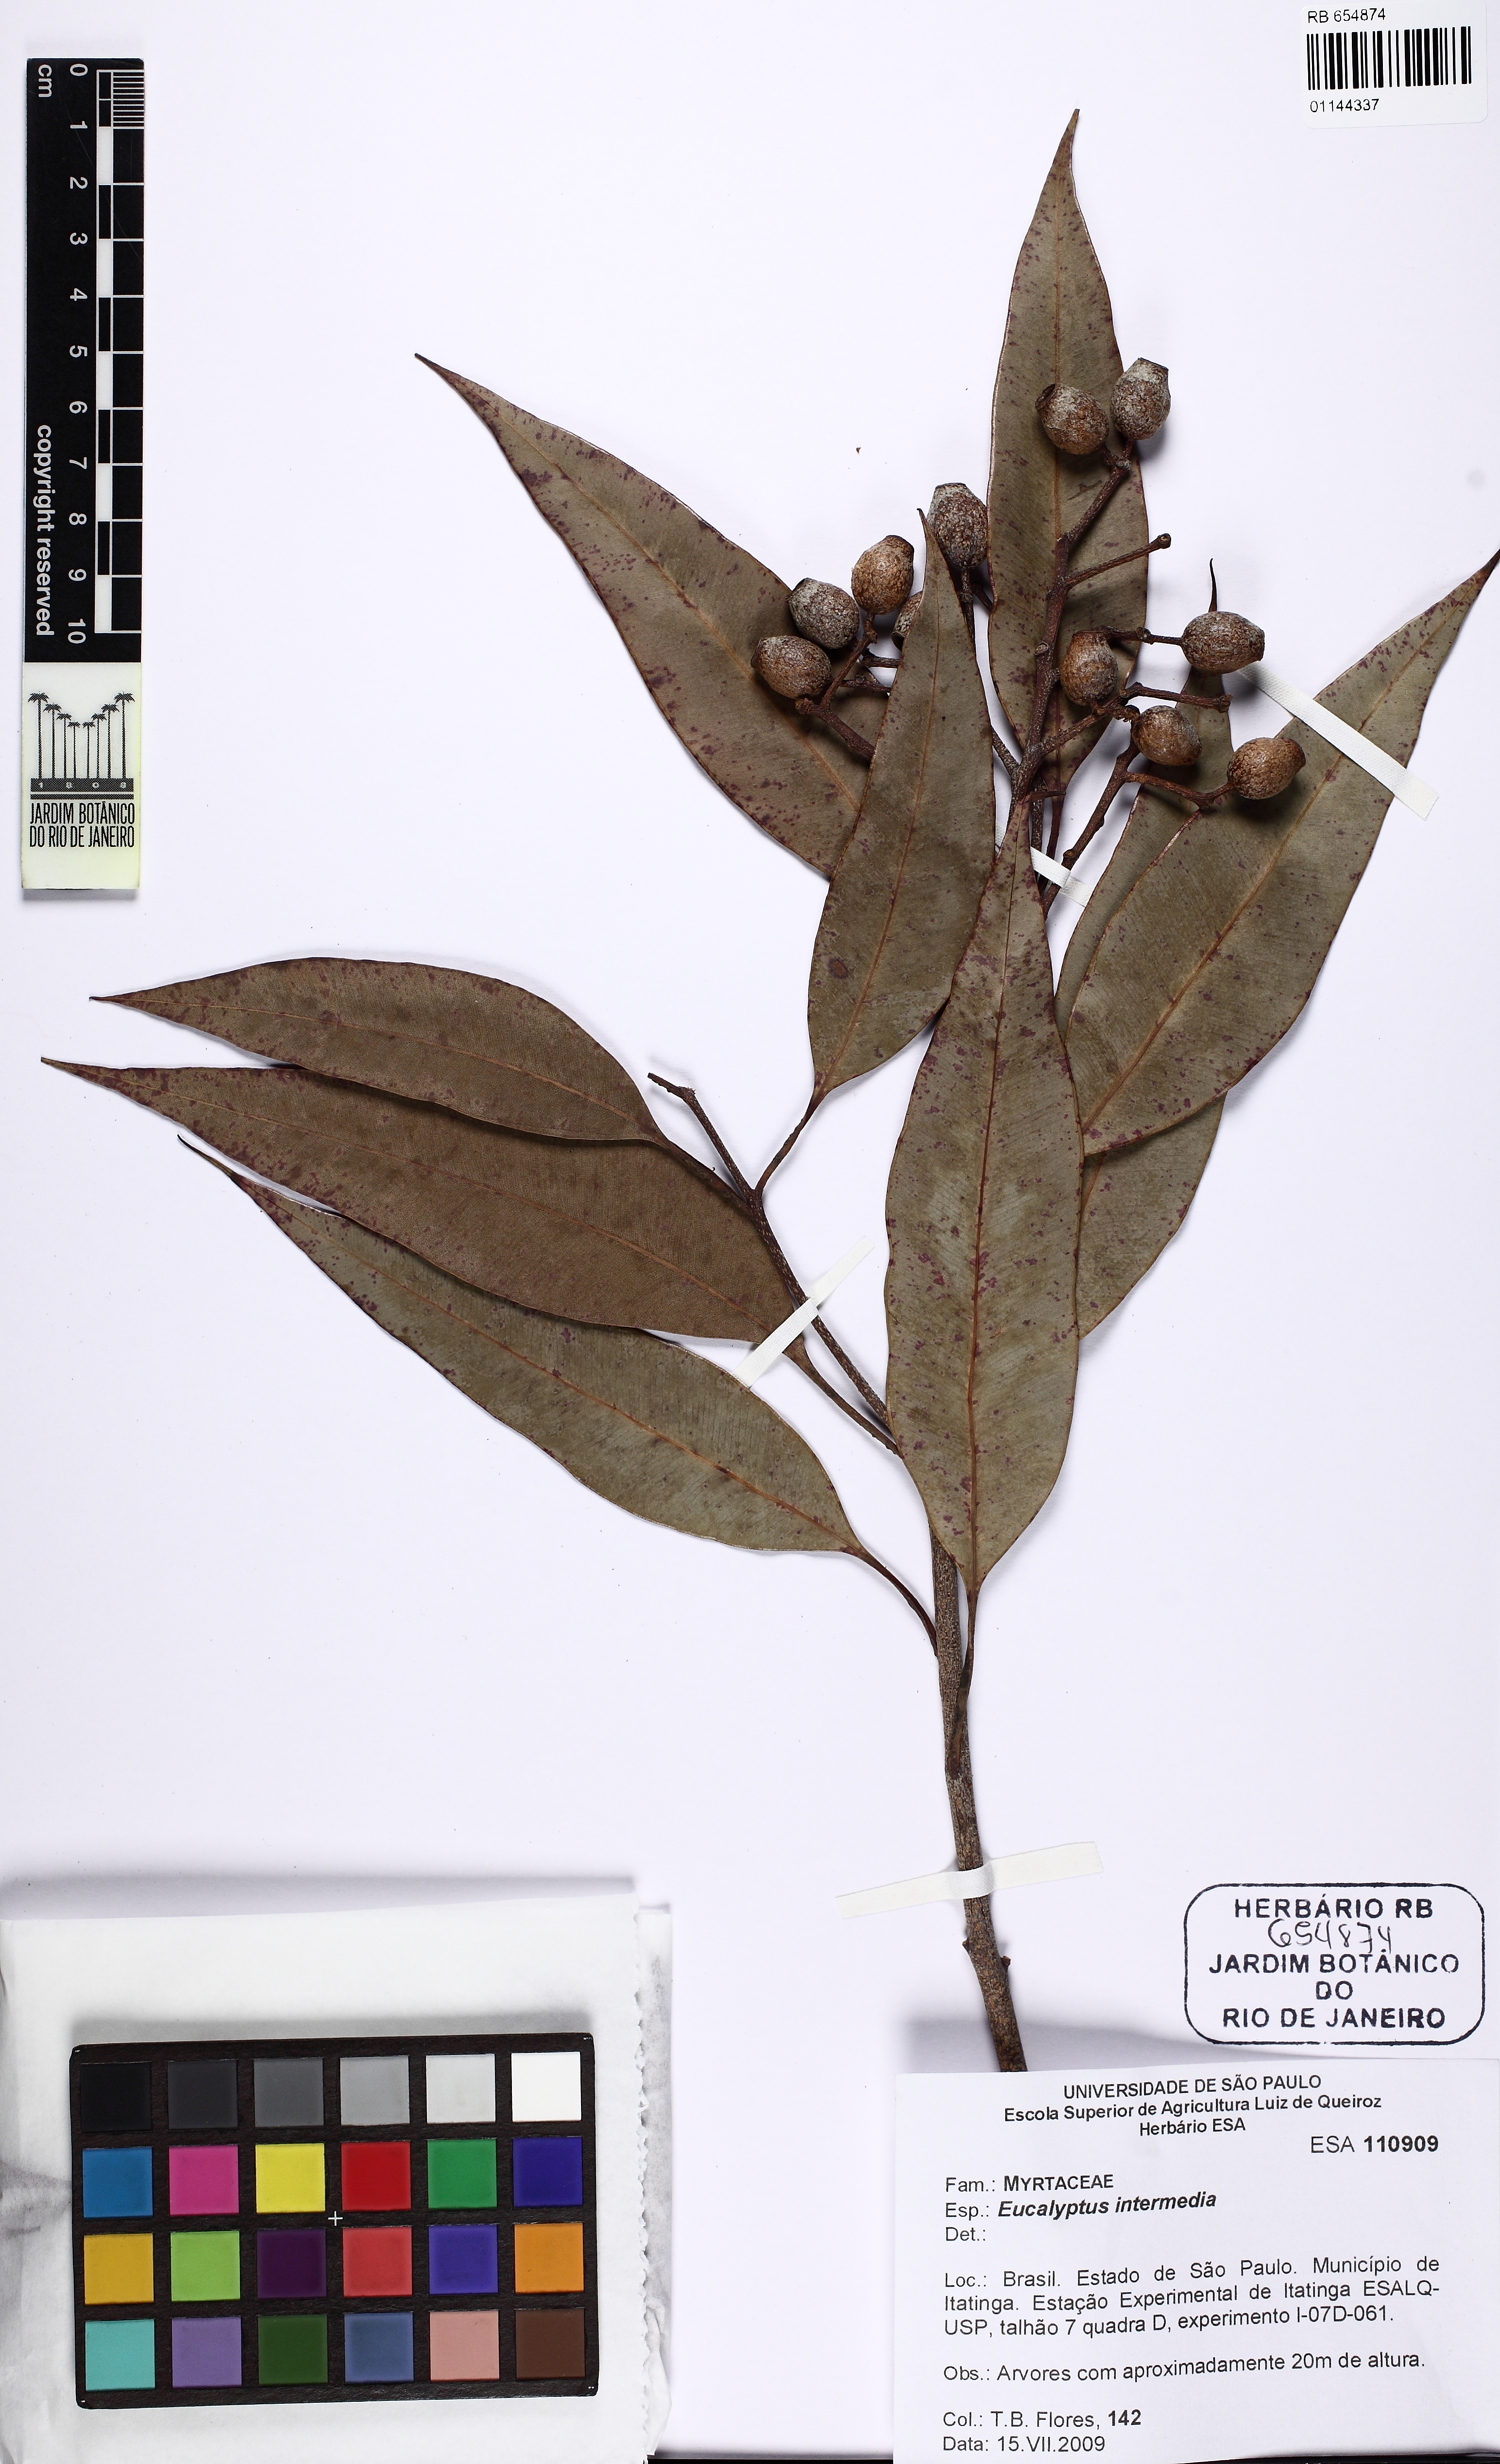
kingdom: Plantae
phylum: Tracheophyta
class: Magnoliopsida
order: Myrtales
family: Myrtaceae
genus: Corymbia
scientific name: Corymbia intermedia
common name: Pink-bloodwood
